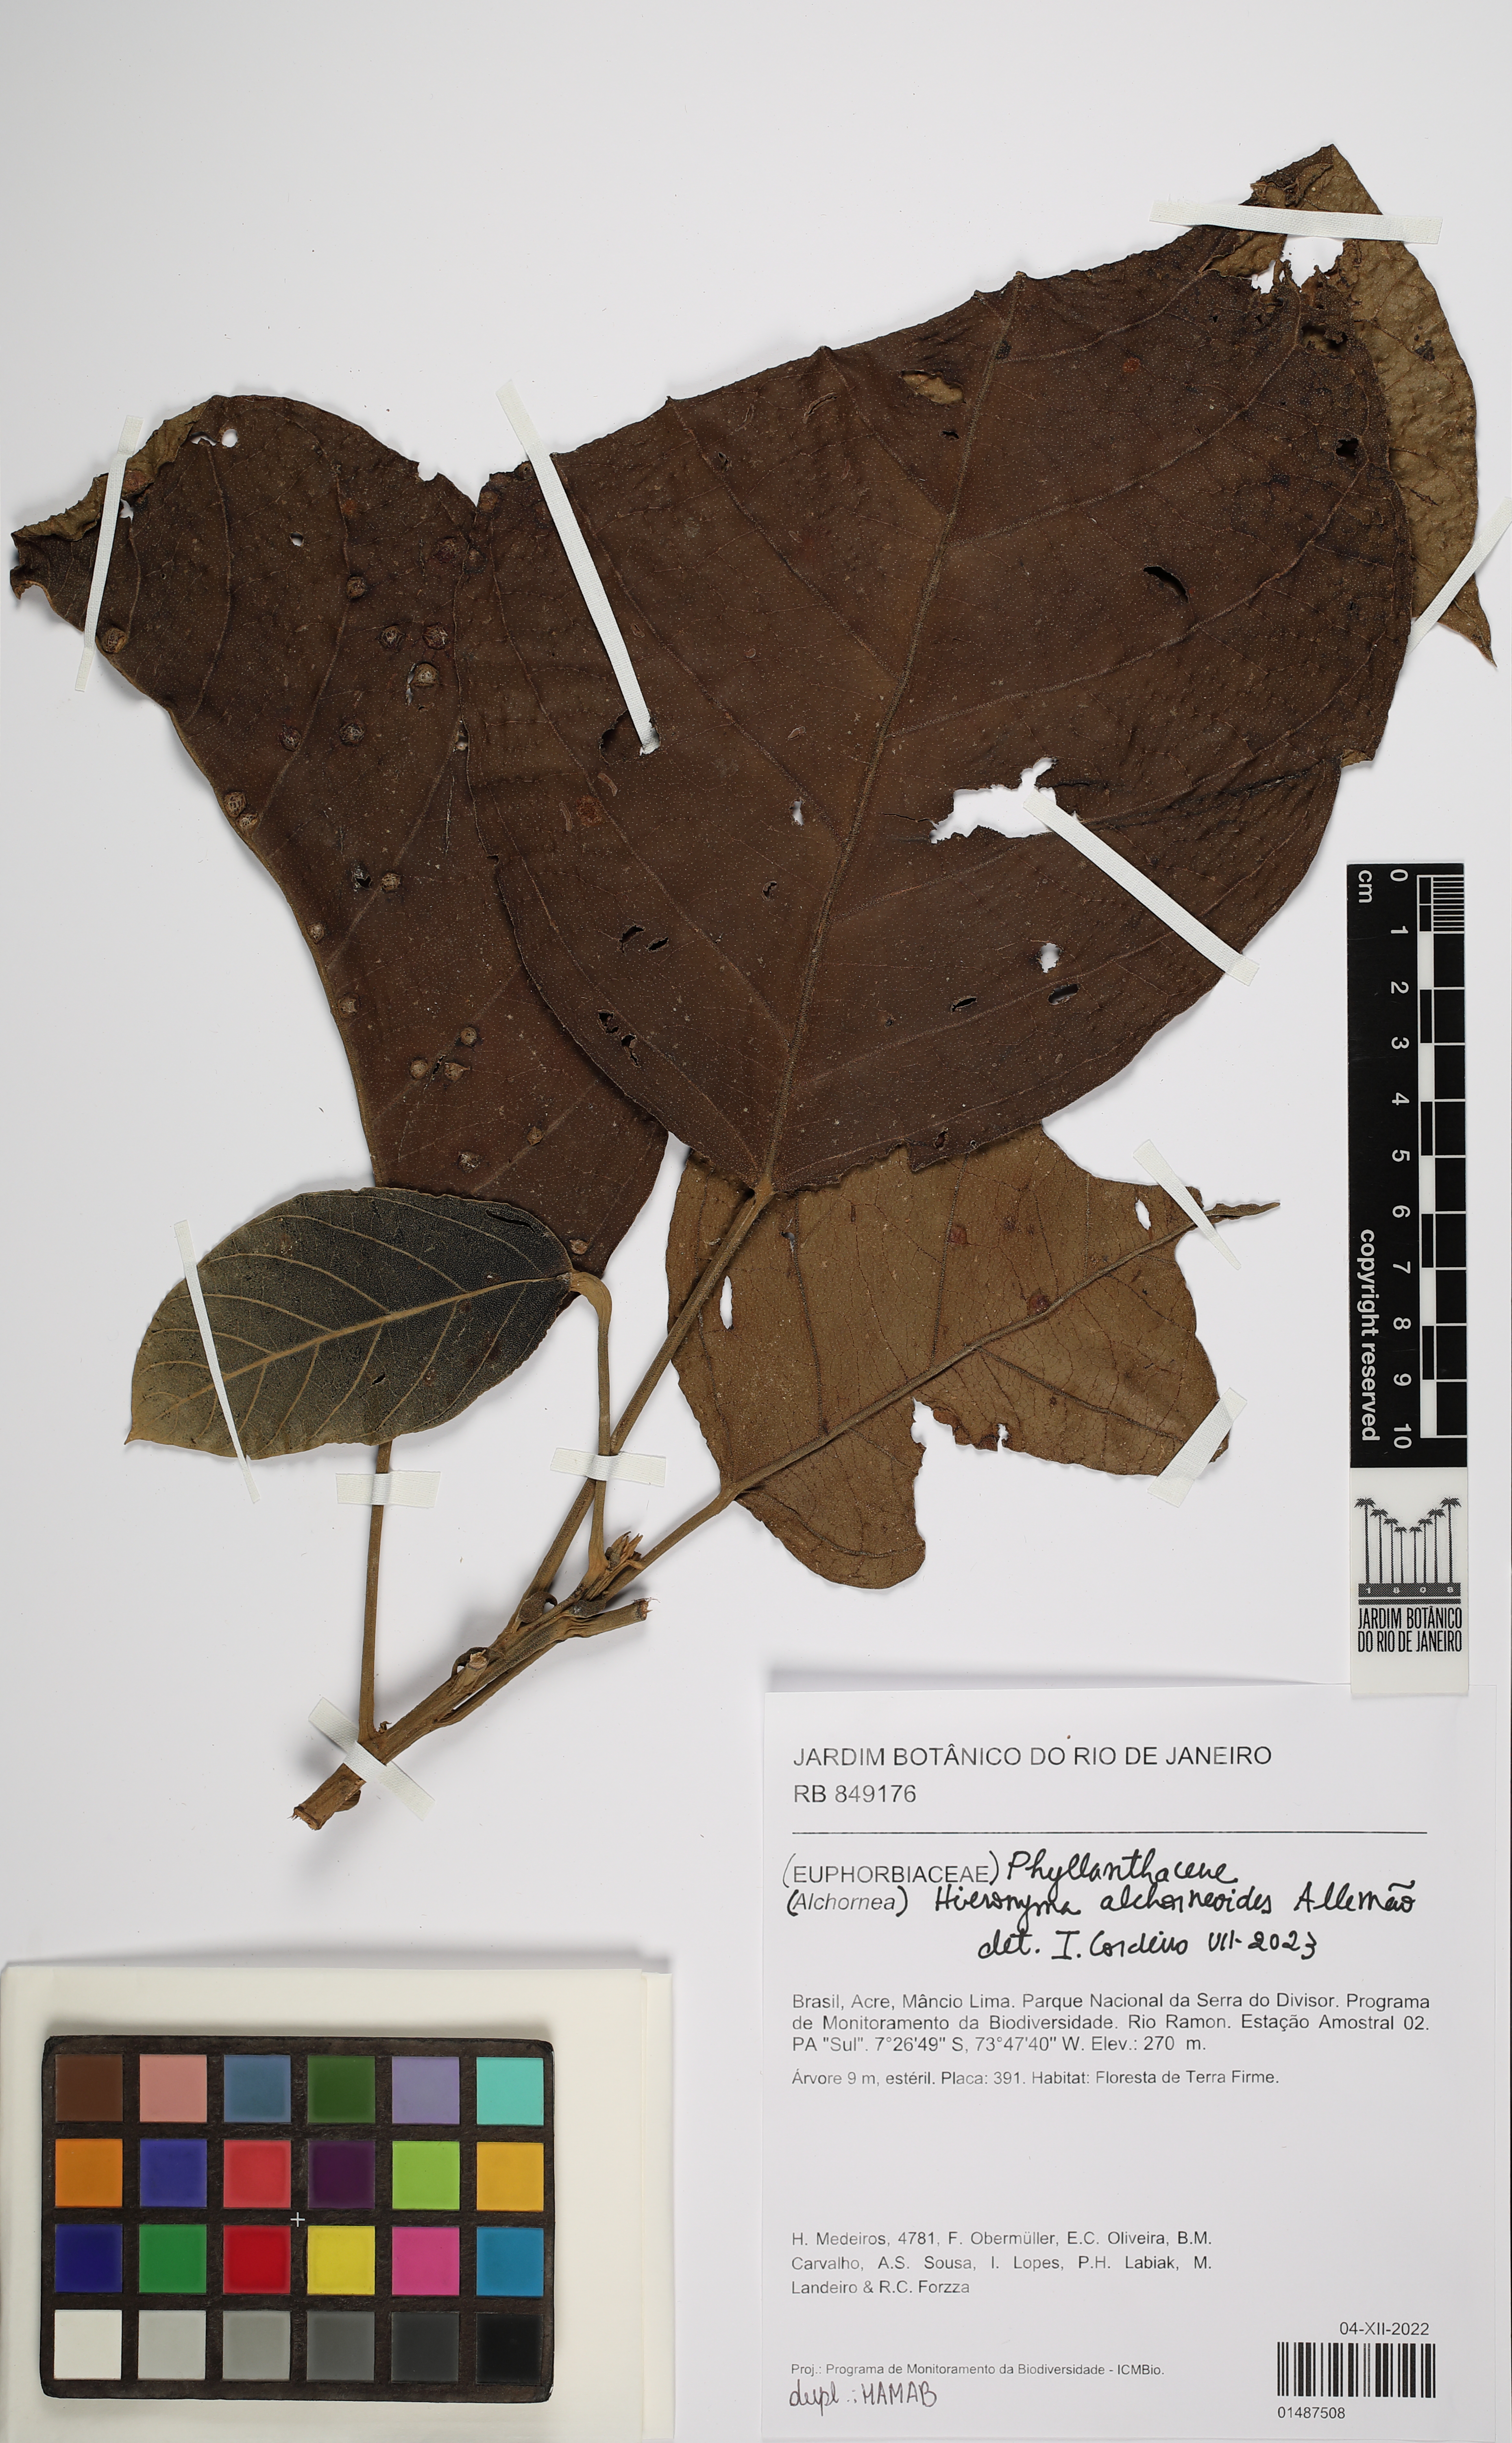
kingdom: Plantae
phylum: Tracheophyta
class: Magnoliopsida
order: Malpighiales
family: Phyllanthaceae
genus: Hieronyma
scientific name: Hieronyma alchorneoides
